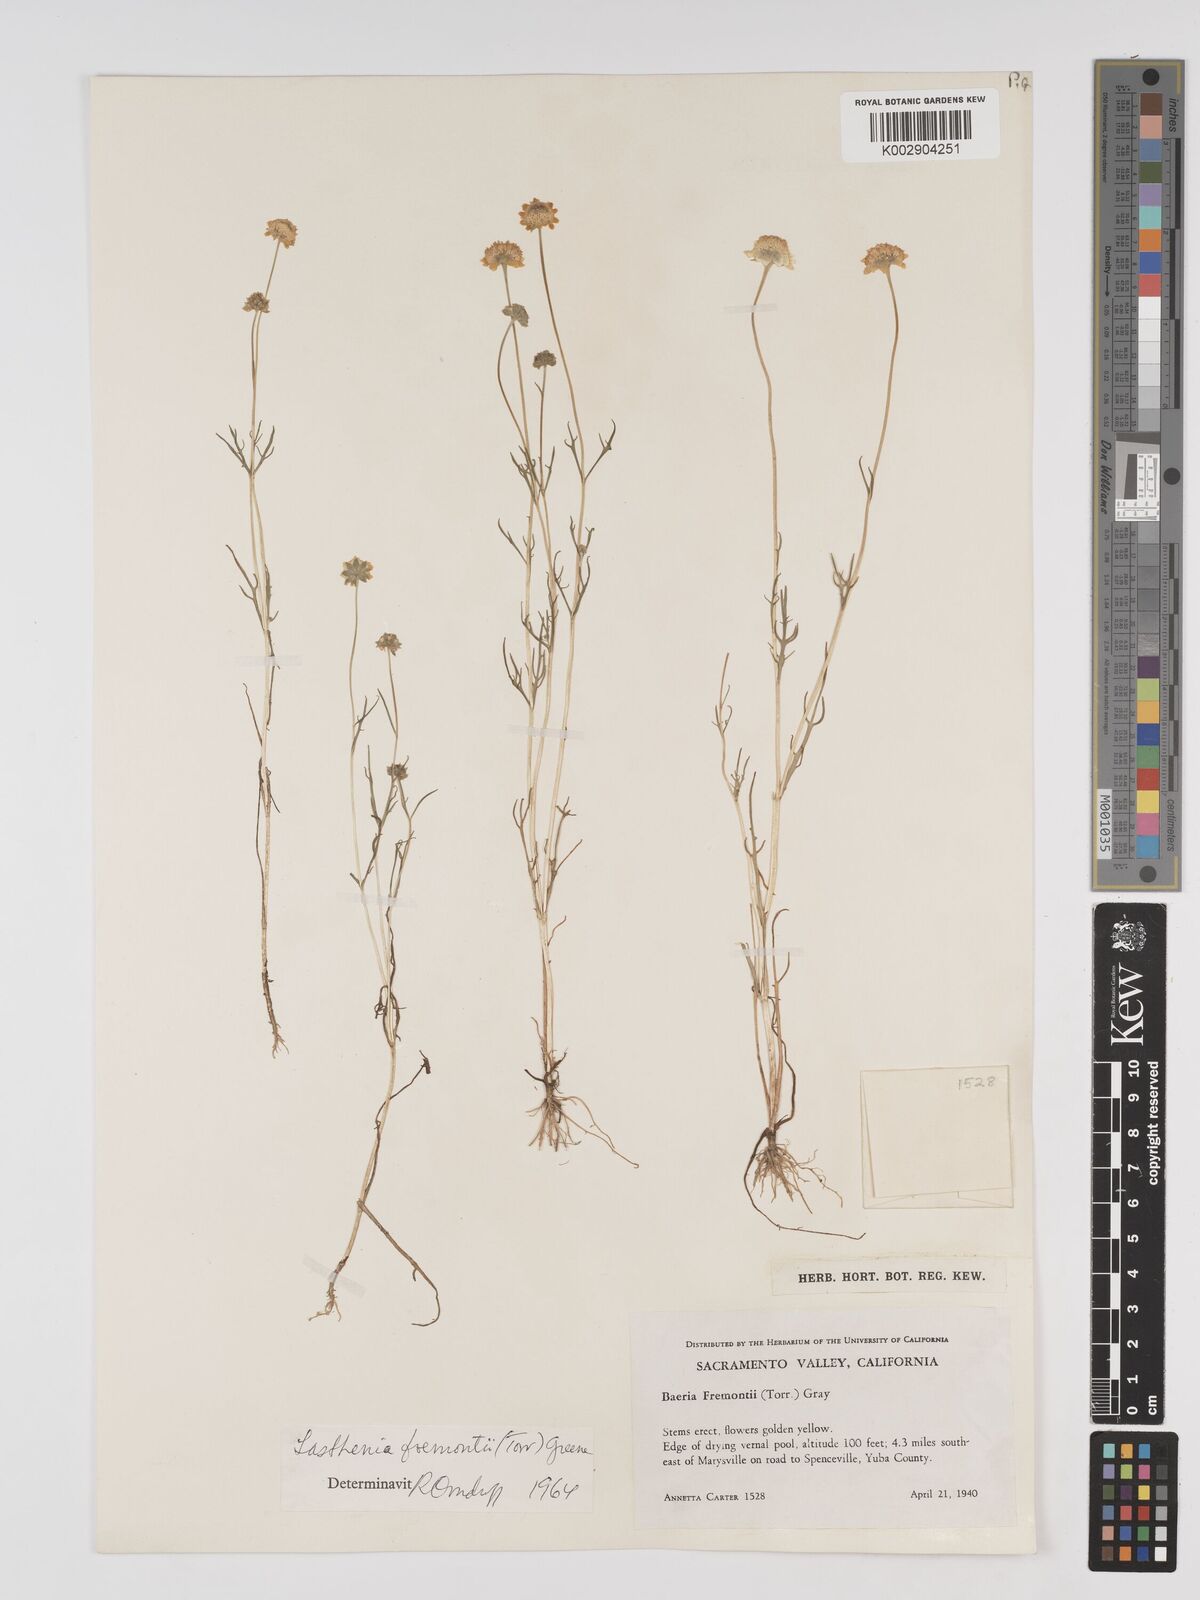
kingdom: Plantae
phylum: Tracheophyta
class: Magnoliopsida
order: Asterales
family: Asteraceae
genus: Lasthenia
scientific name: Lasthenia fremontii
